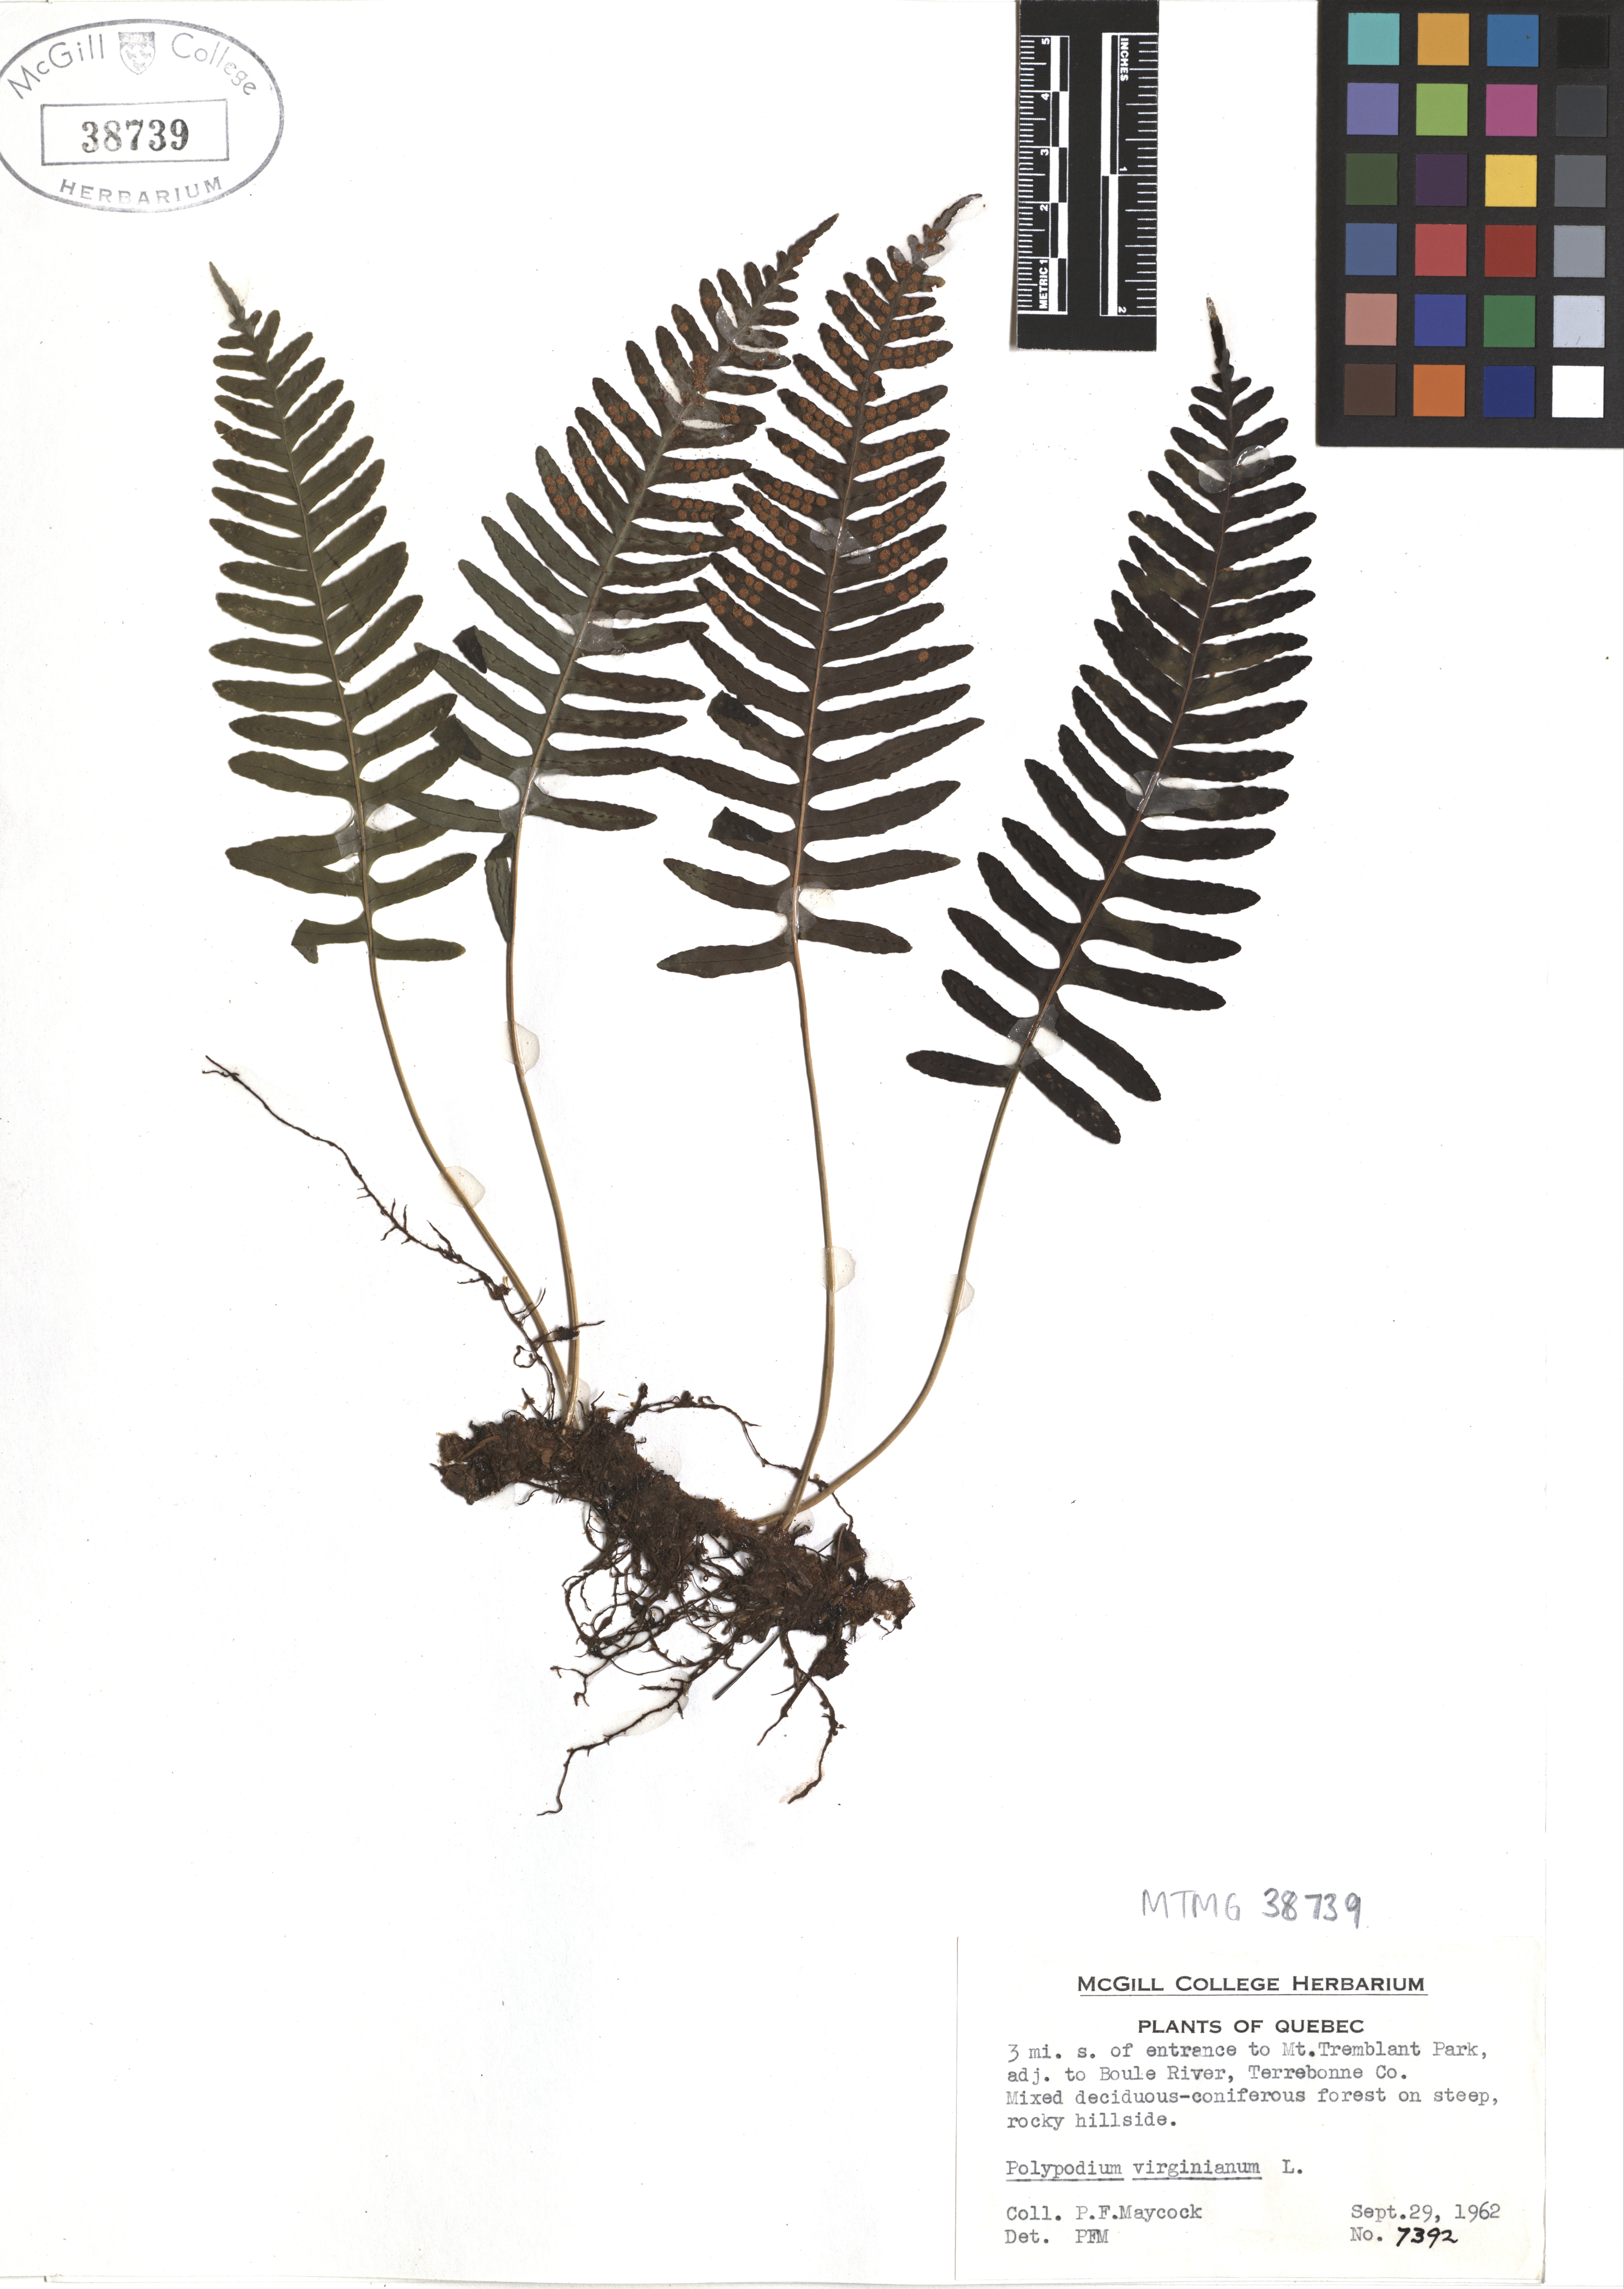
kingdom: Plantae
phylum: Tracheophyta
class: Polypodiopsida
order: Polypodiales
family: Polypodiaceae
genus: Polypodium
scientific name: Polypodium virginianum
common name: American wall fern
